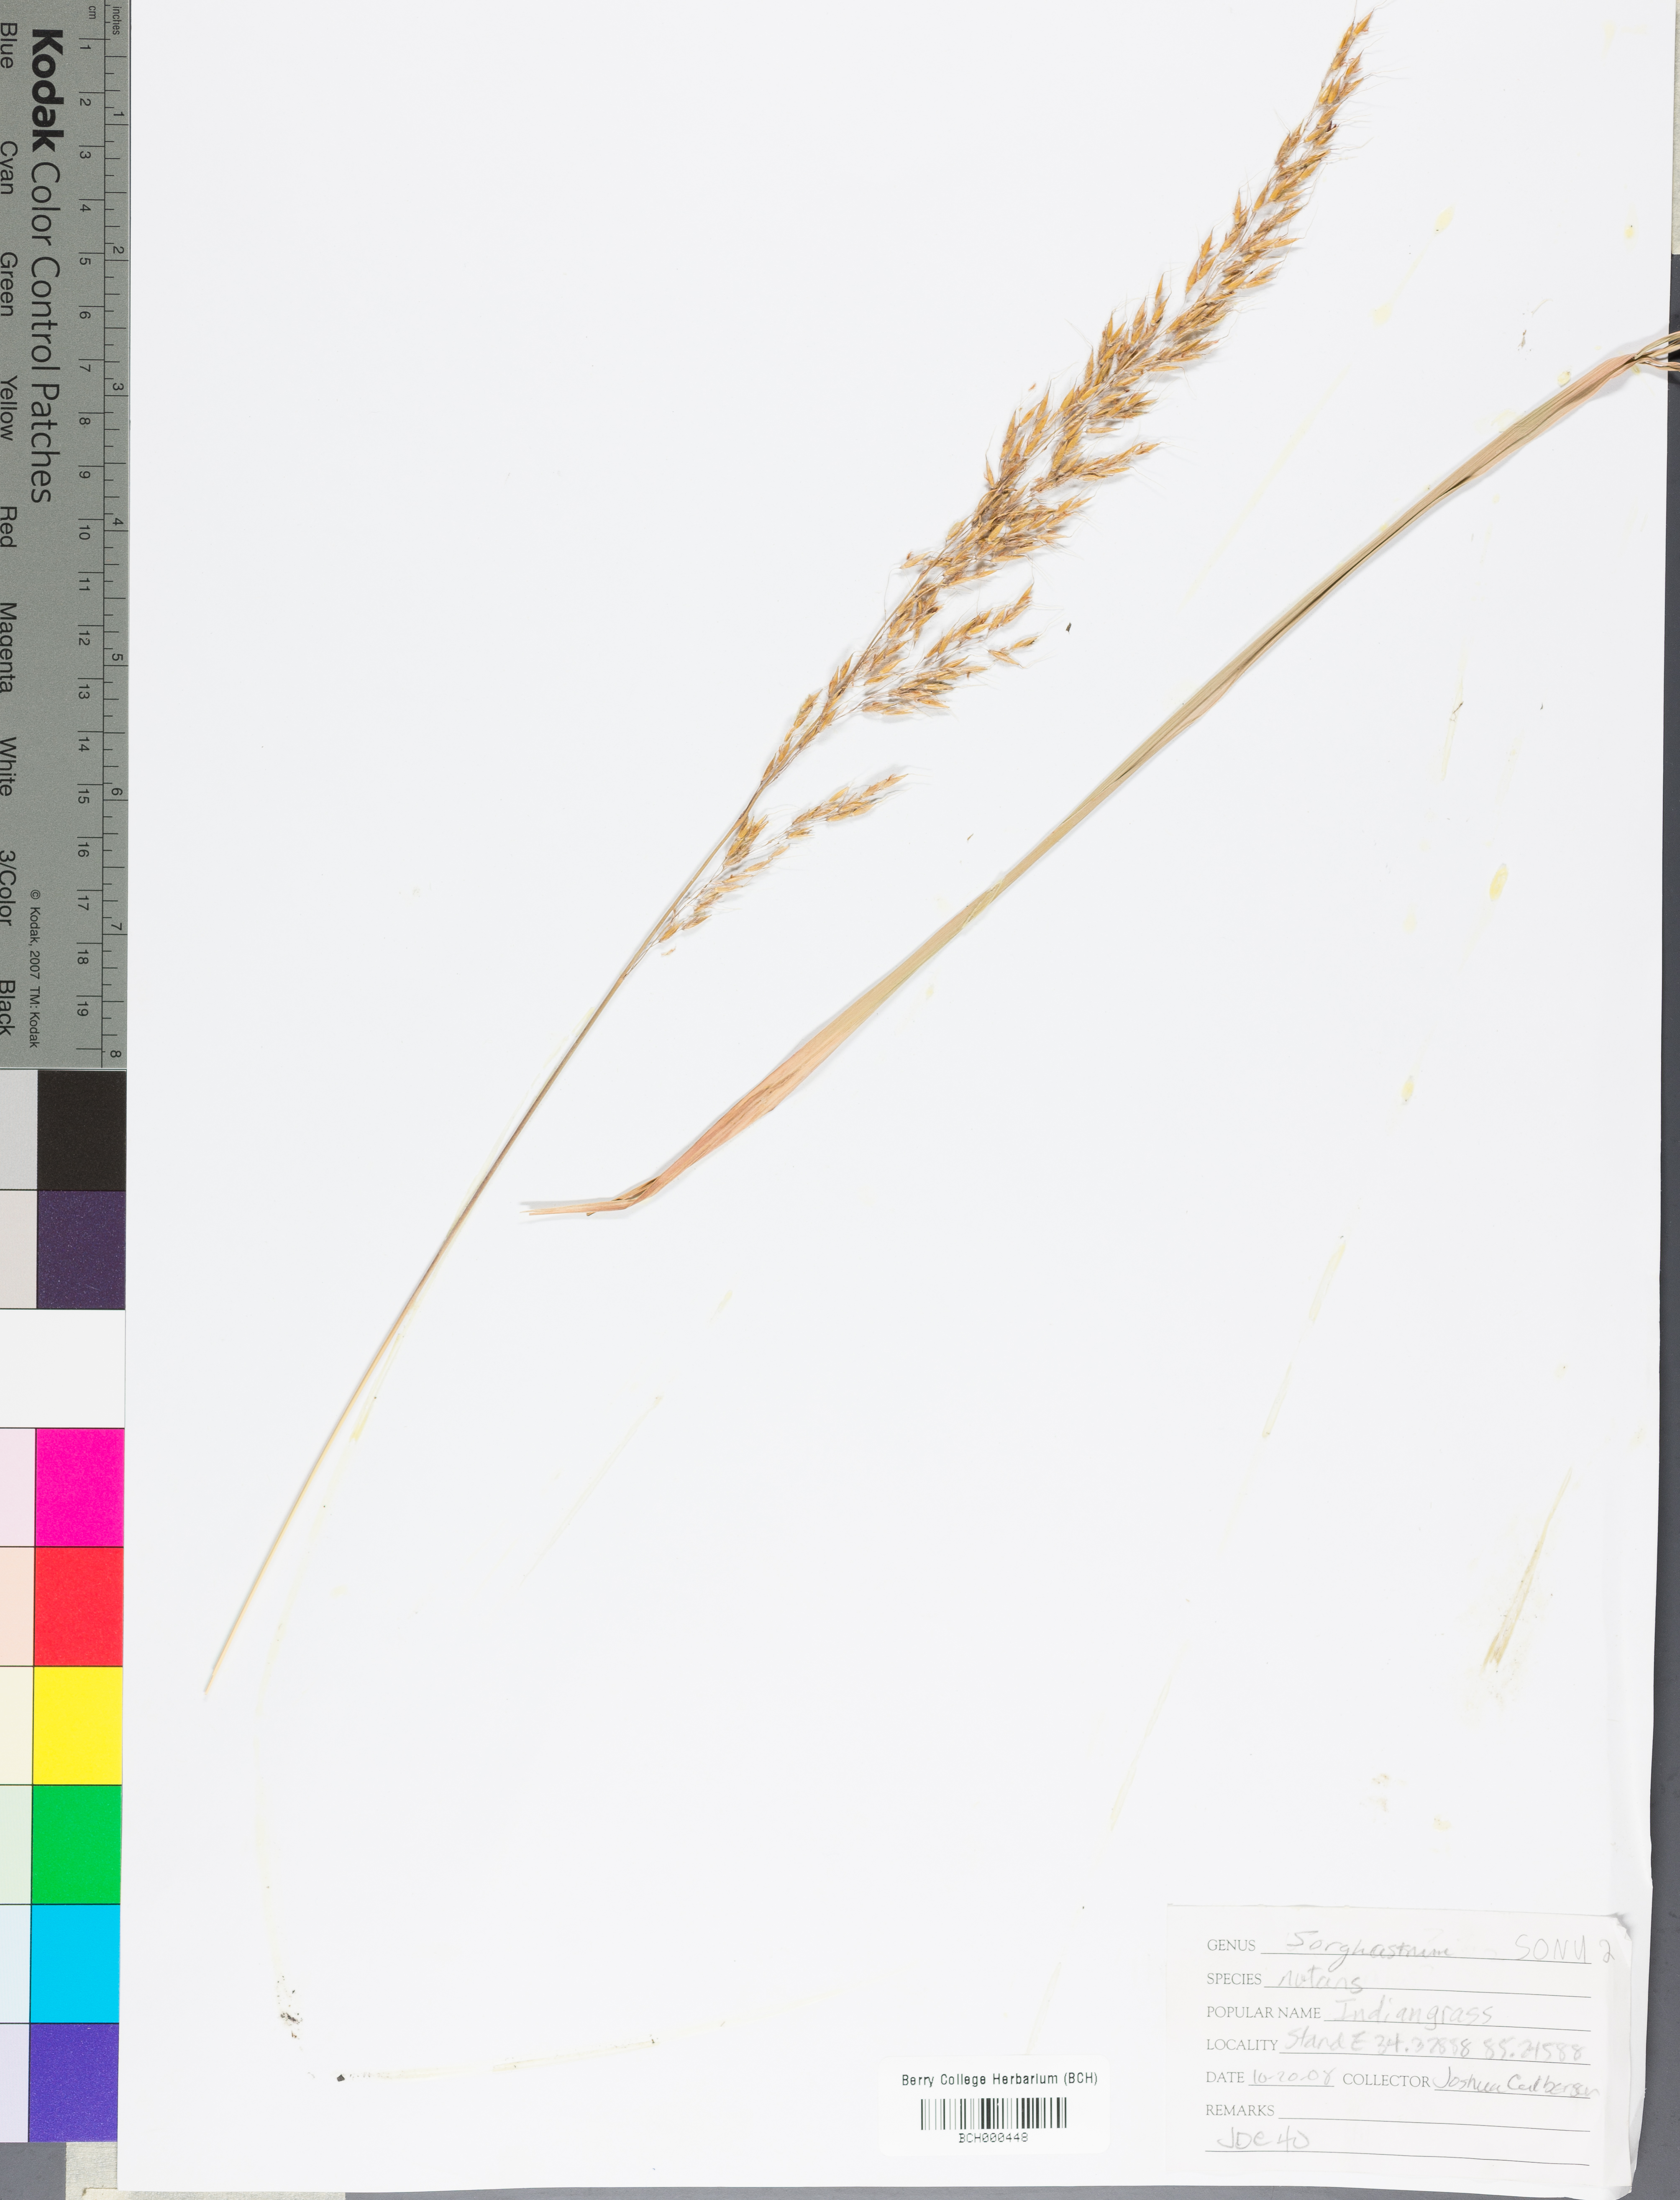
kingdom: Plantae
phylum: Tracheophyta
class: Liliopsida
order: Poales
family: Poaceae
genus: Sorghastrum
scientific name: Sorghastrum nutans
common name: Indian grass
